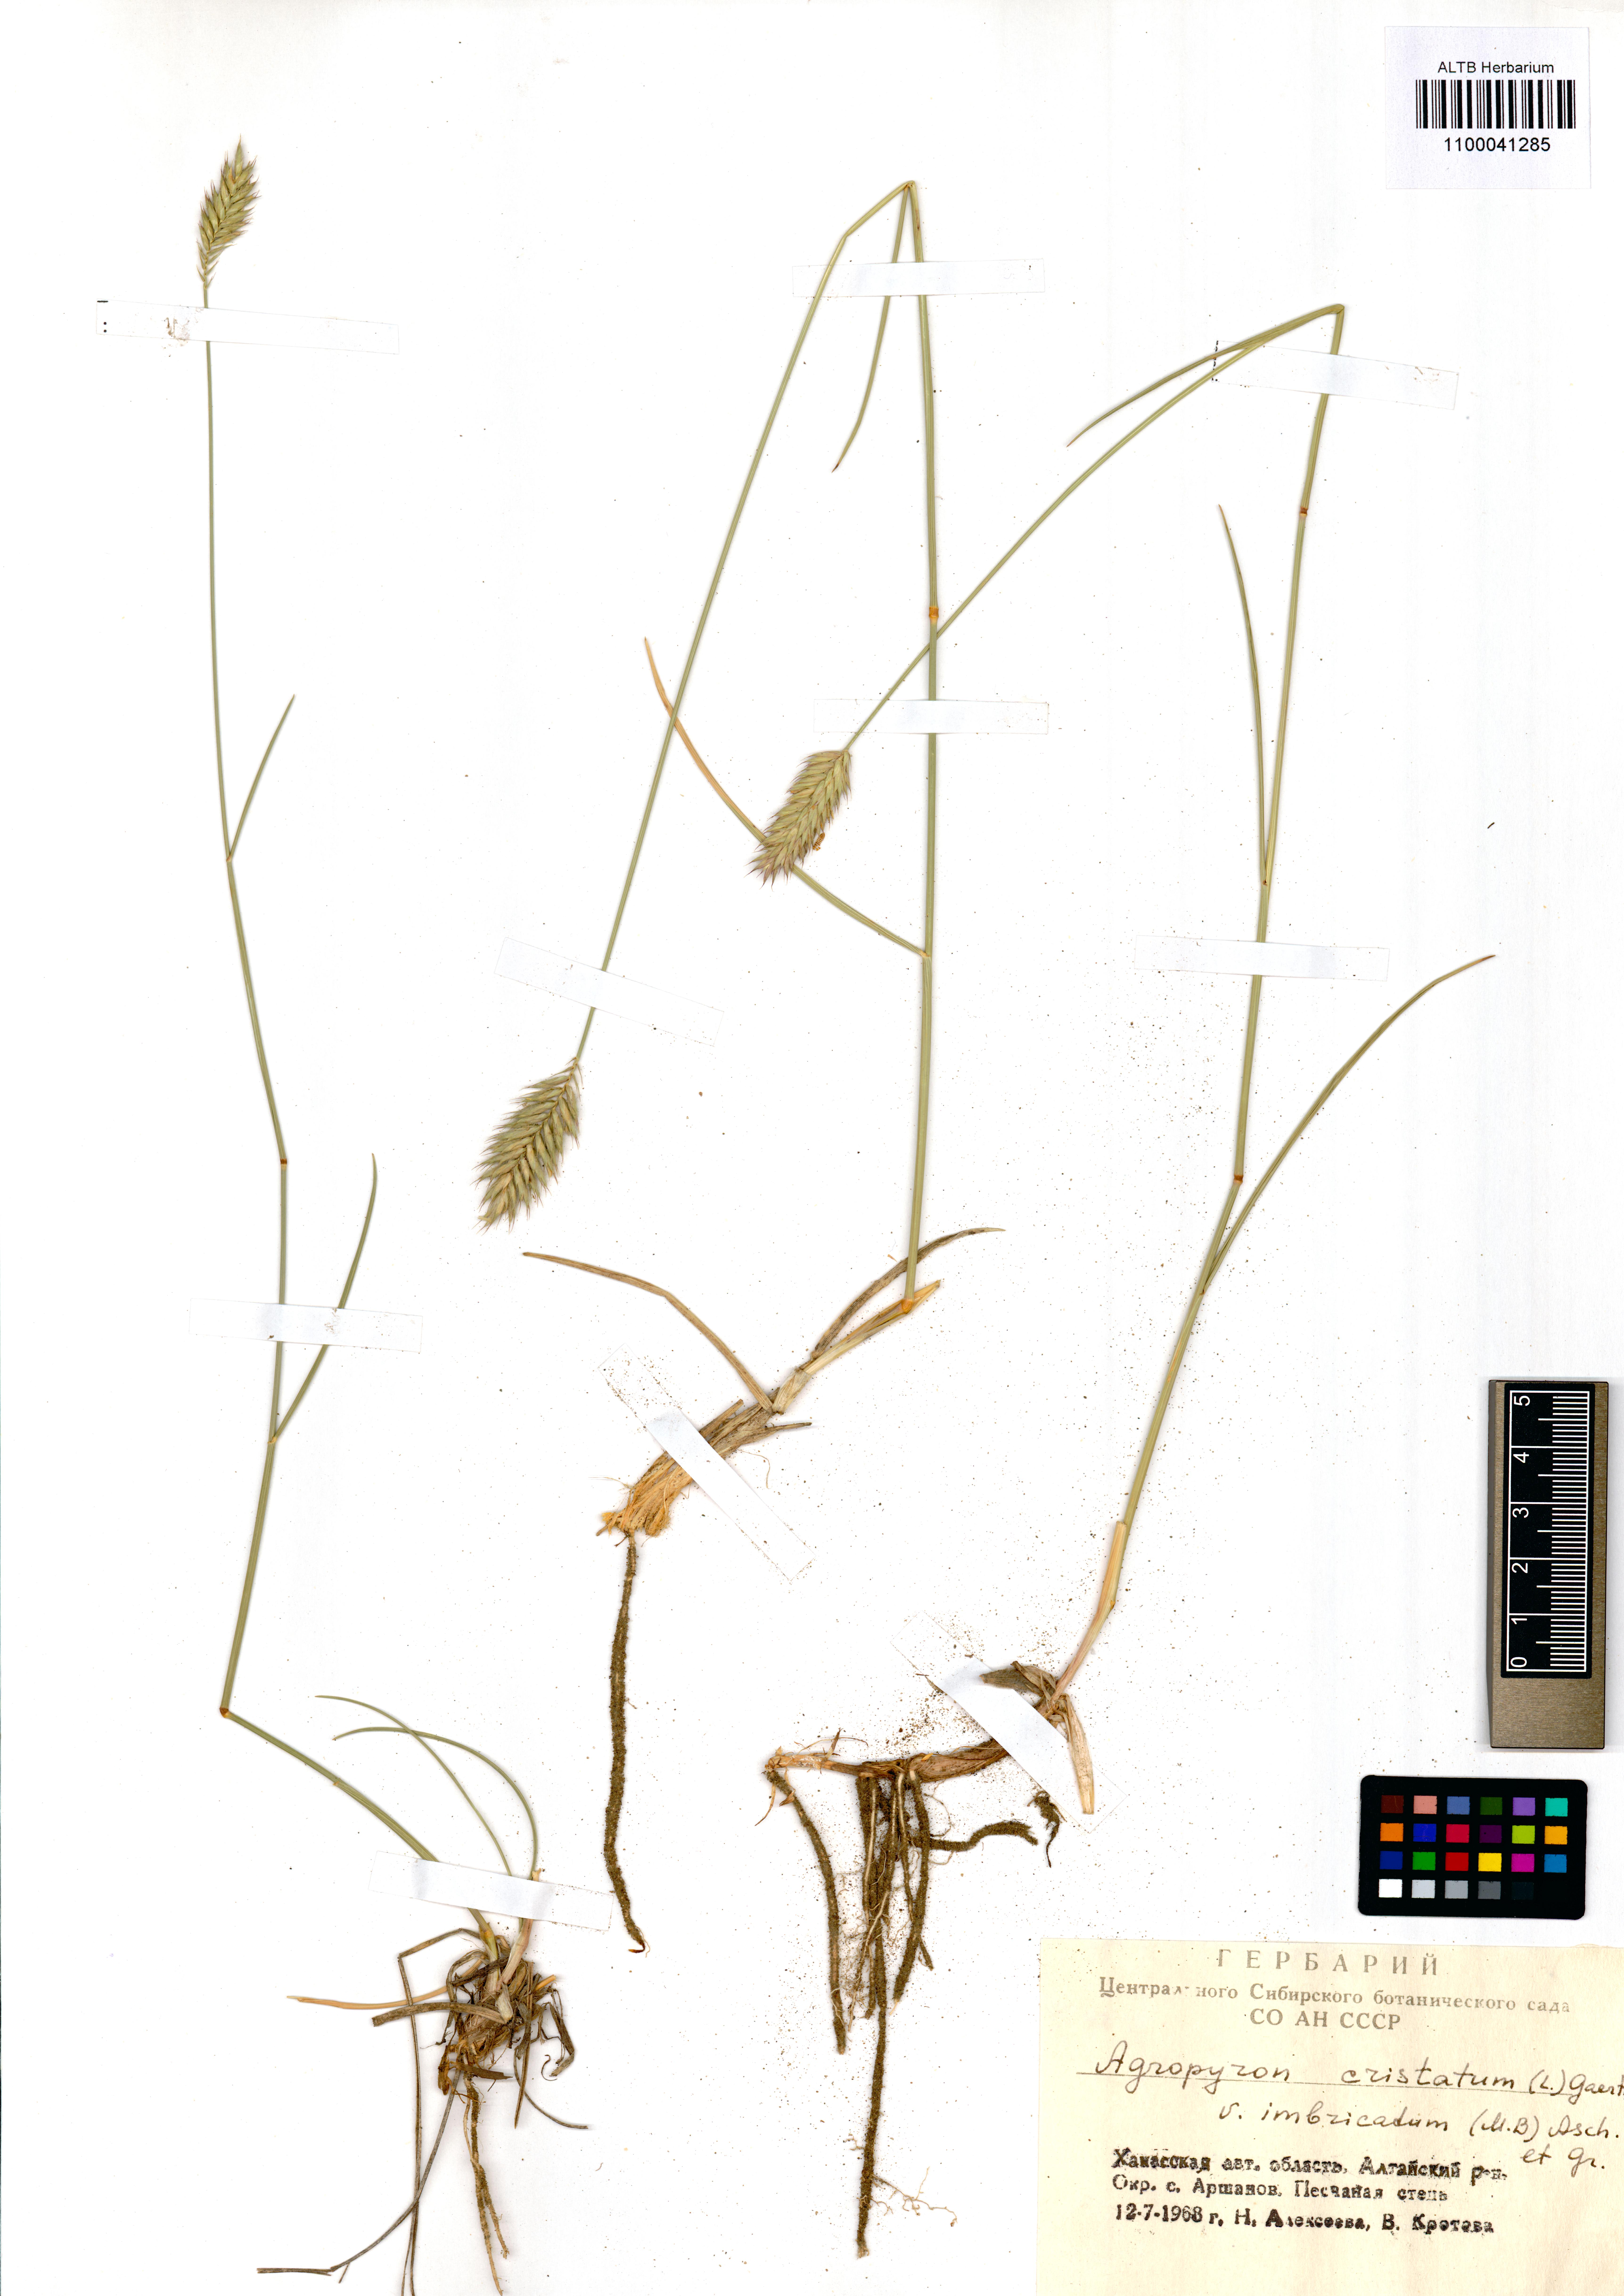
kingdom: Plantae
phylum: Tracheophyta
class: Liliopsida
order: Poales
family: Poaceae
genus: Agropyron
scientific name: Agropyron cristatum
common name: Crested wheatgrass
